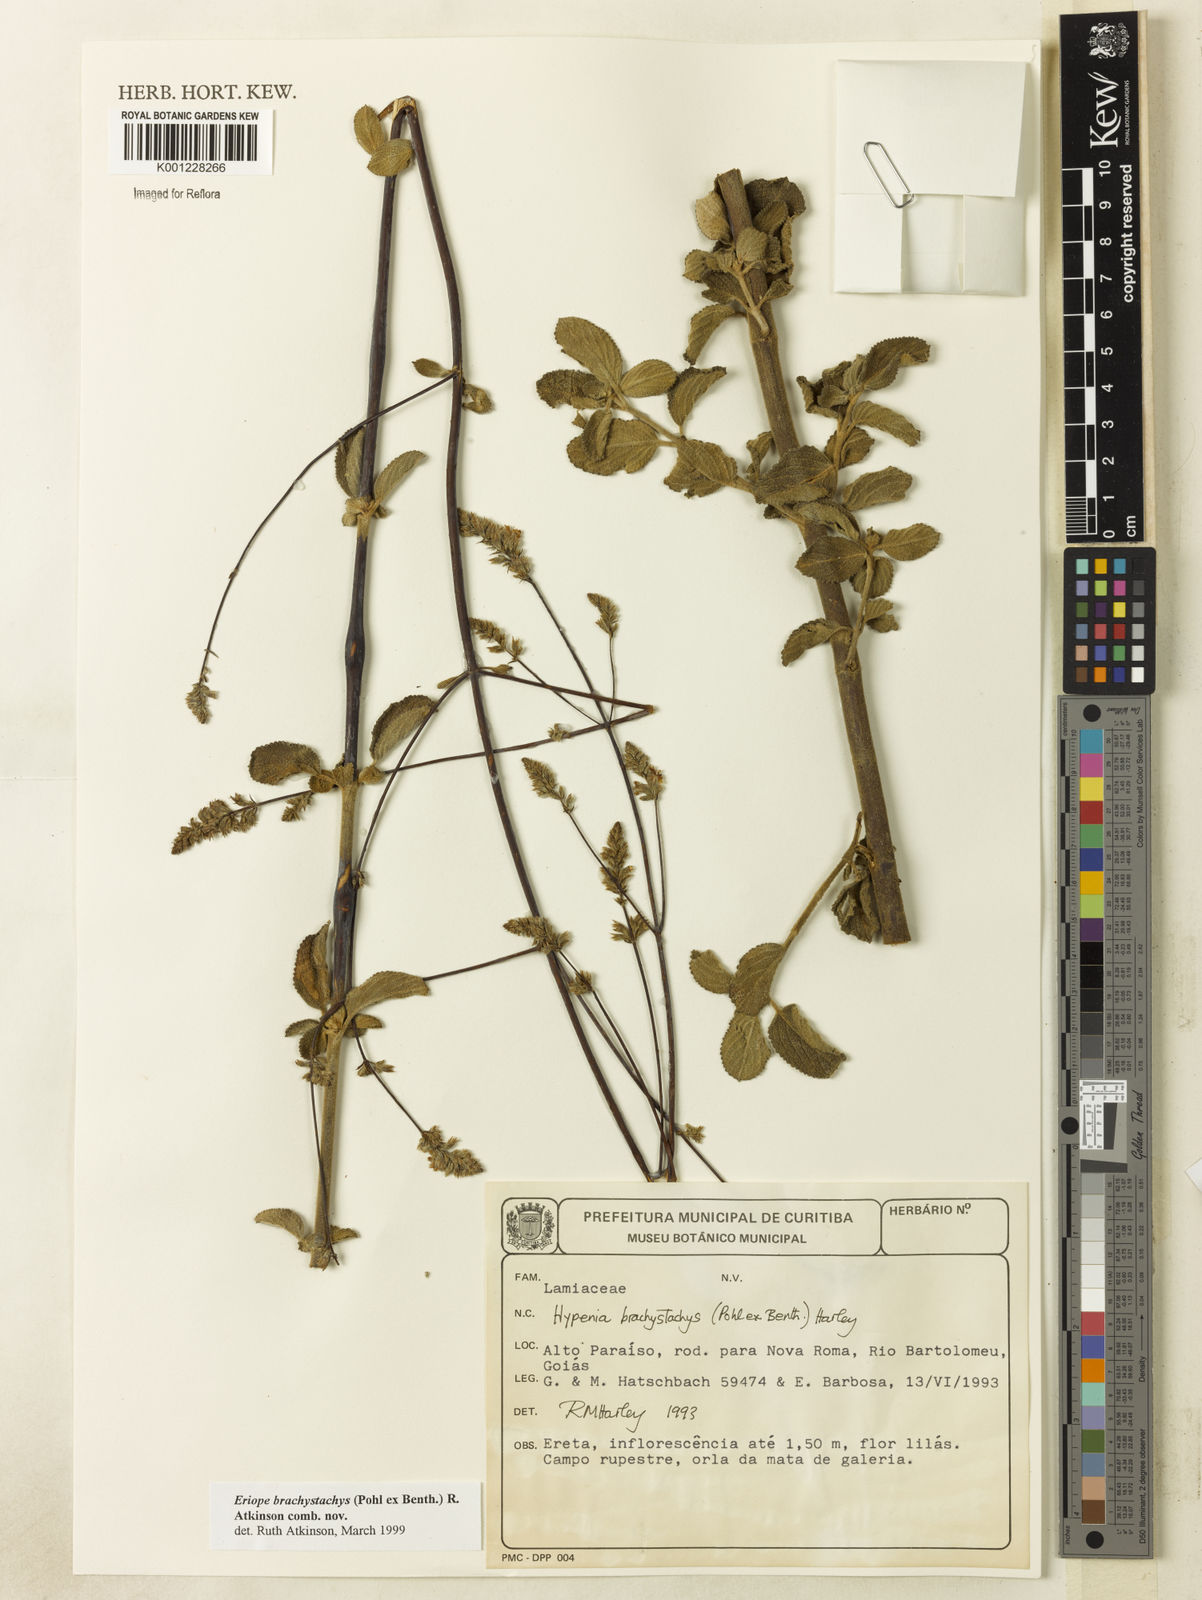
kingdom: Plantae
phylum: Tracheophyta
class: Magnoliopsida
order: Lamiales
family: Lamiaceae
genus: Hypenia
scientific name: Hypenia brachystachys
